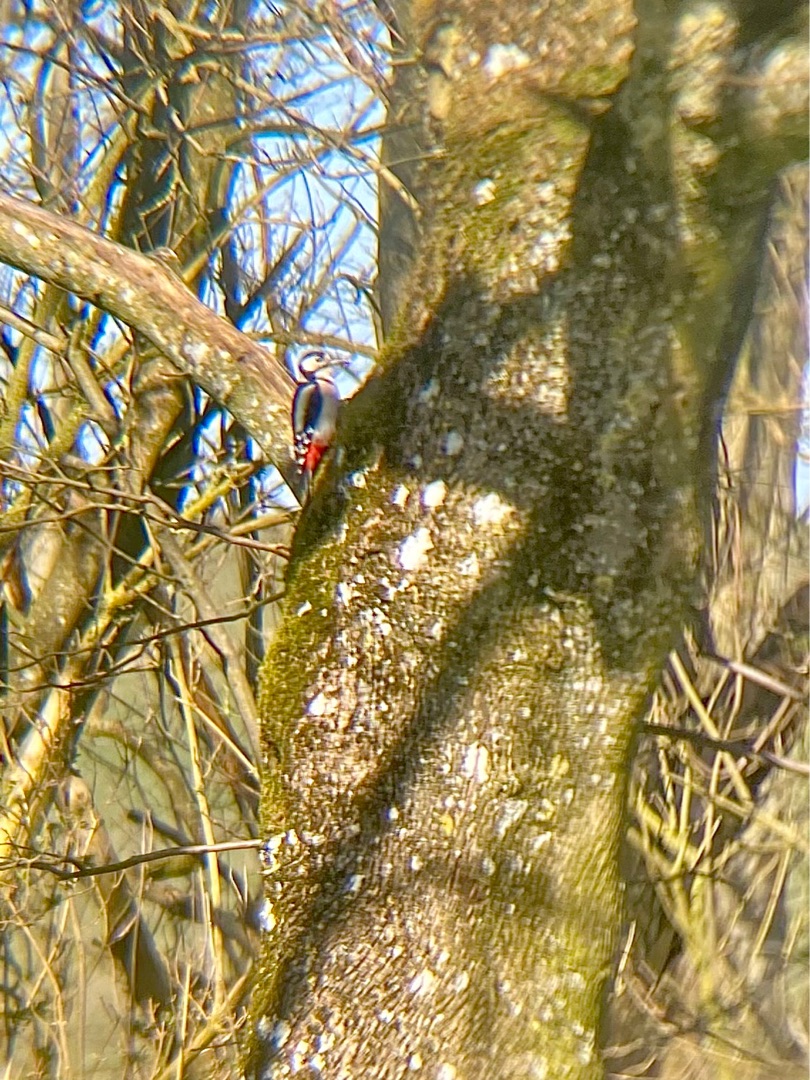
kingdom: Animalia
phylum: Chordata
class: Aves
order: Piciformes
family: Picidae
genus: Dendrocopos
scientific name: Dendrocopos major
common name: Stor flagspætte
